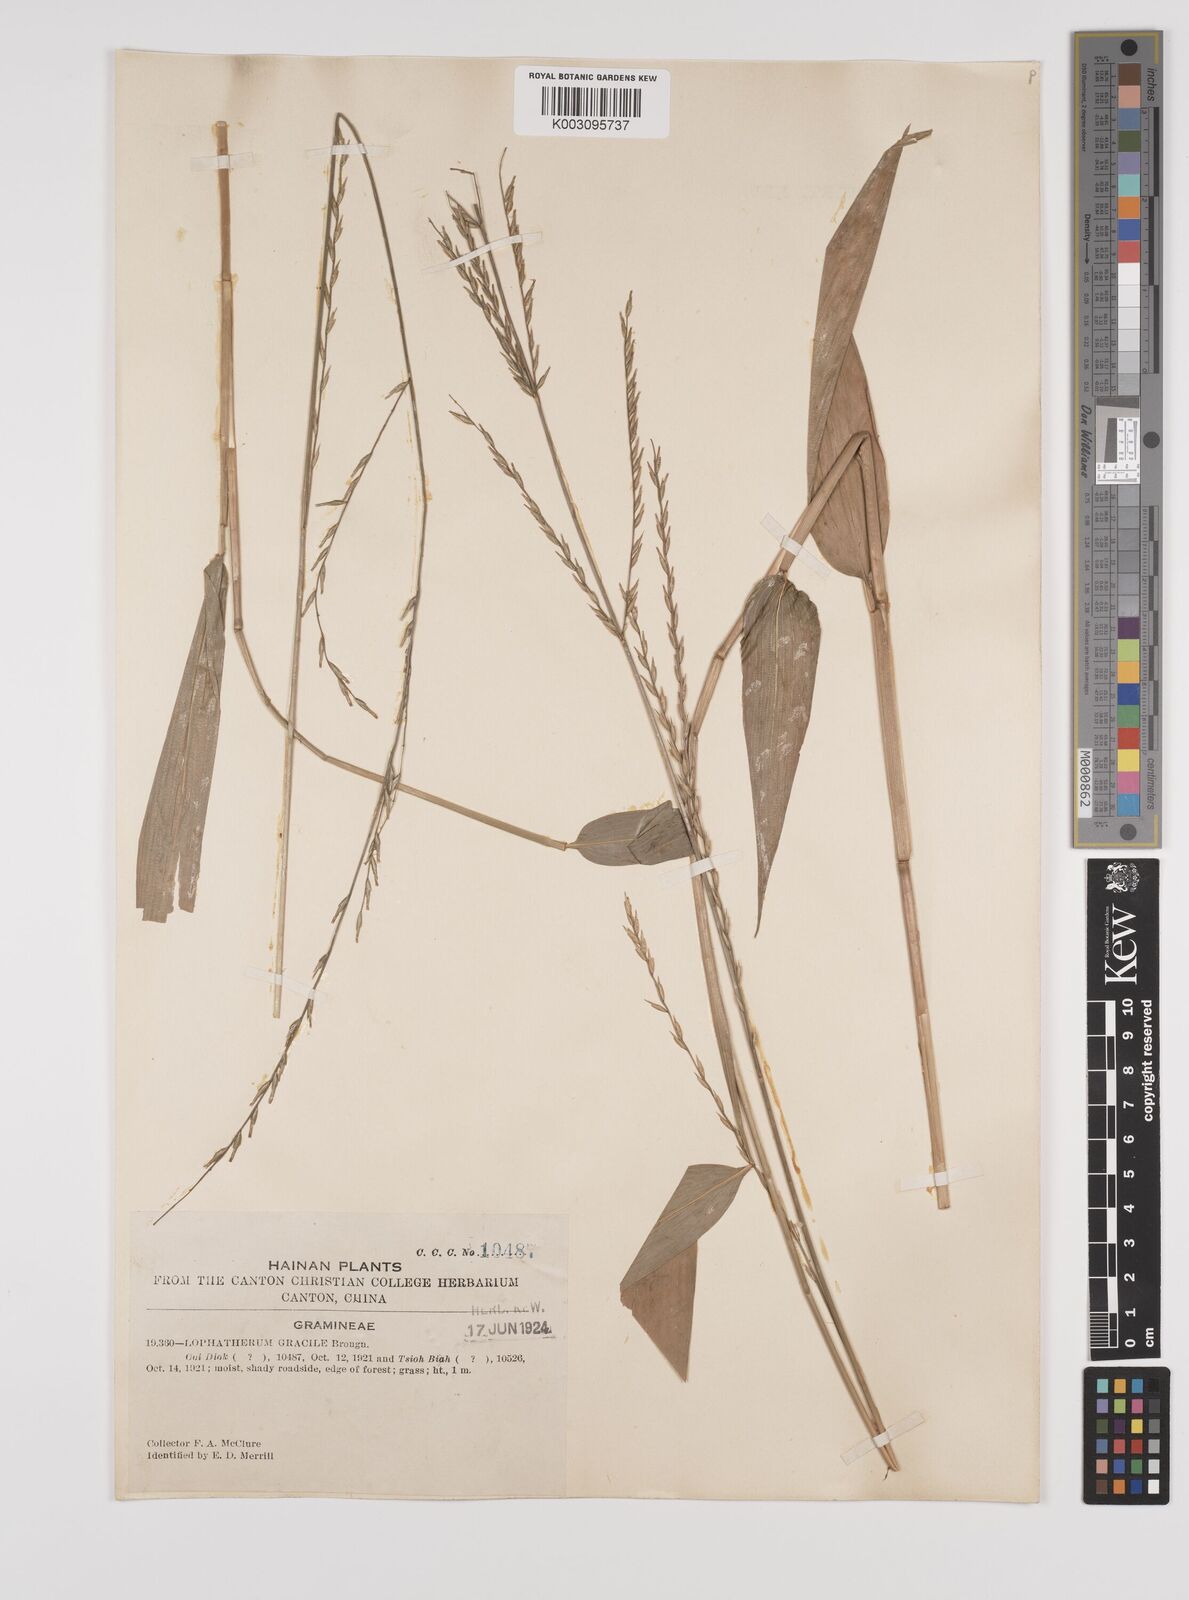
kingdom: Plantae
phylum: Tracheophyta
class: Liliopsida
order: Poales
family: Poaceae
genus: Lophatherum
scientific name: Lophatherum gracile
